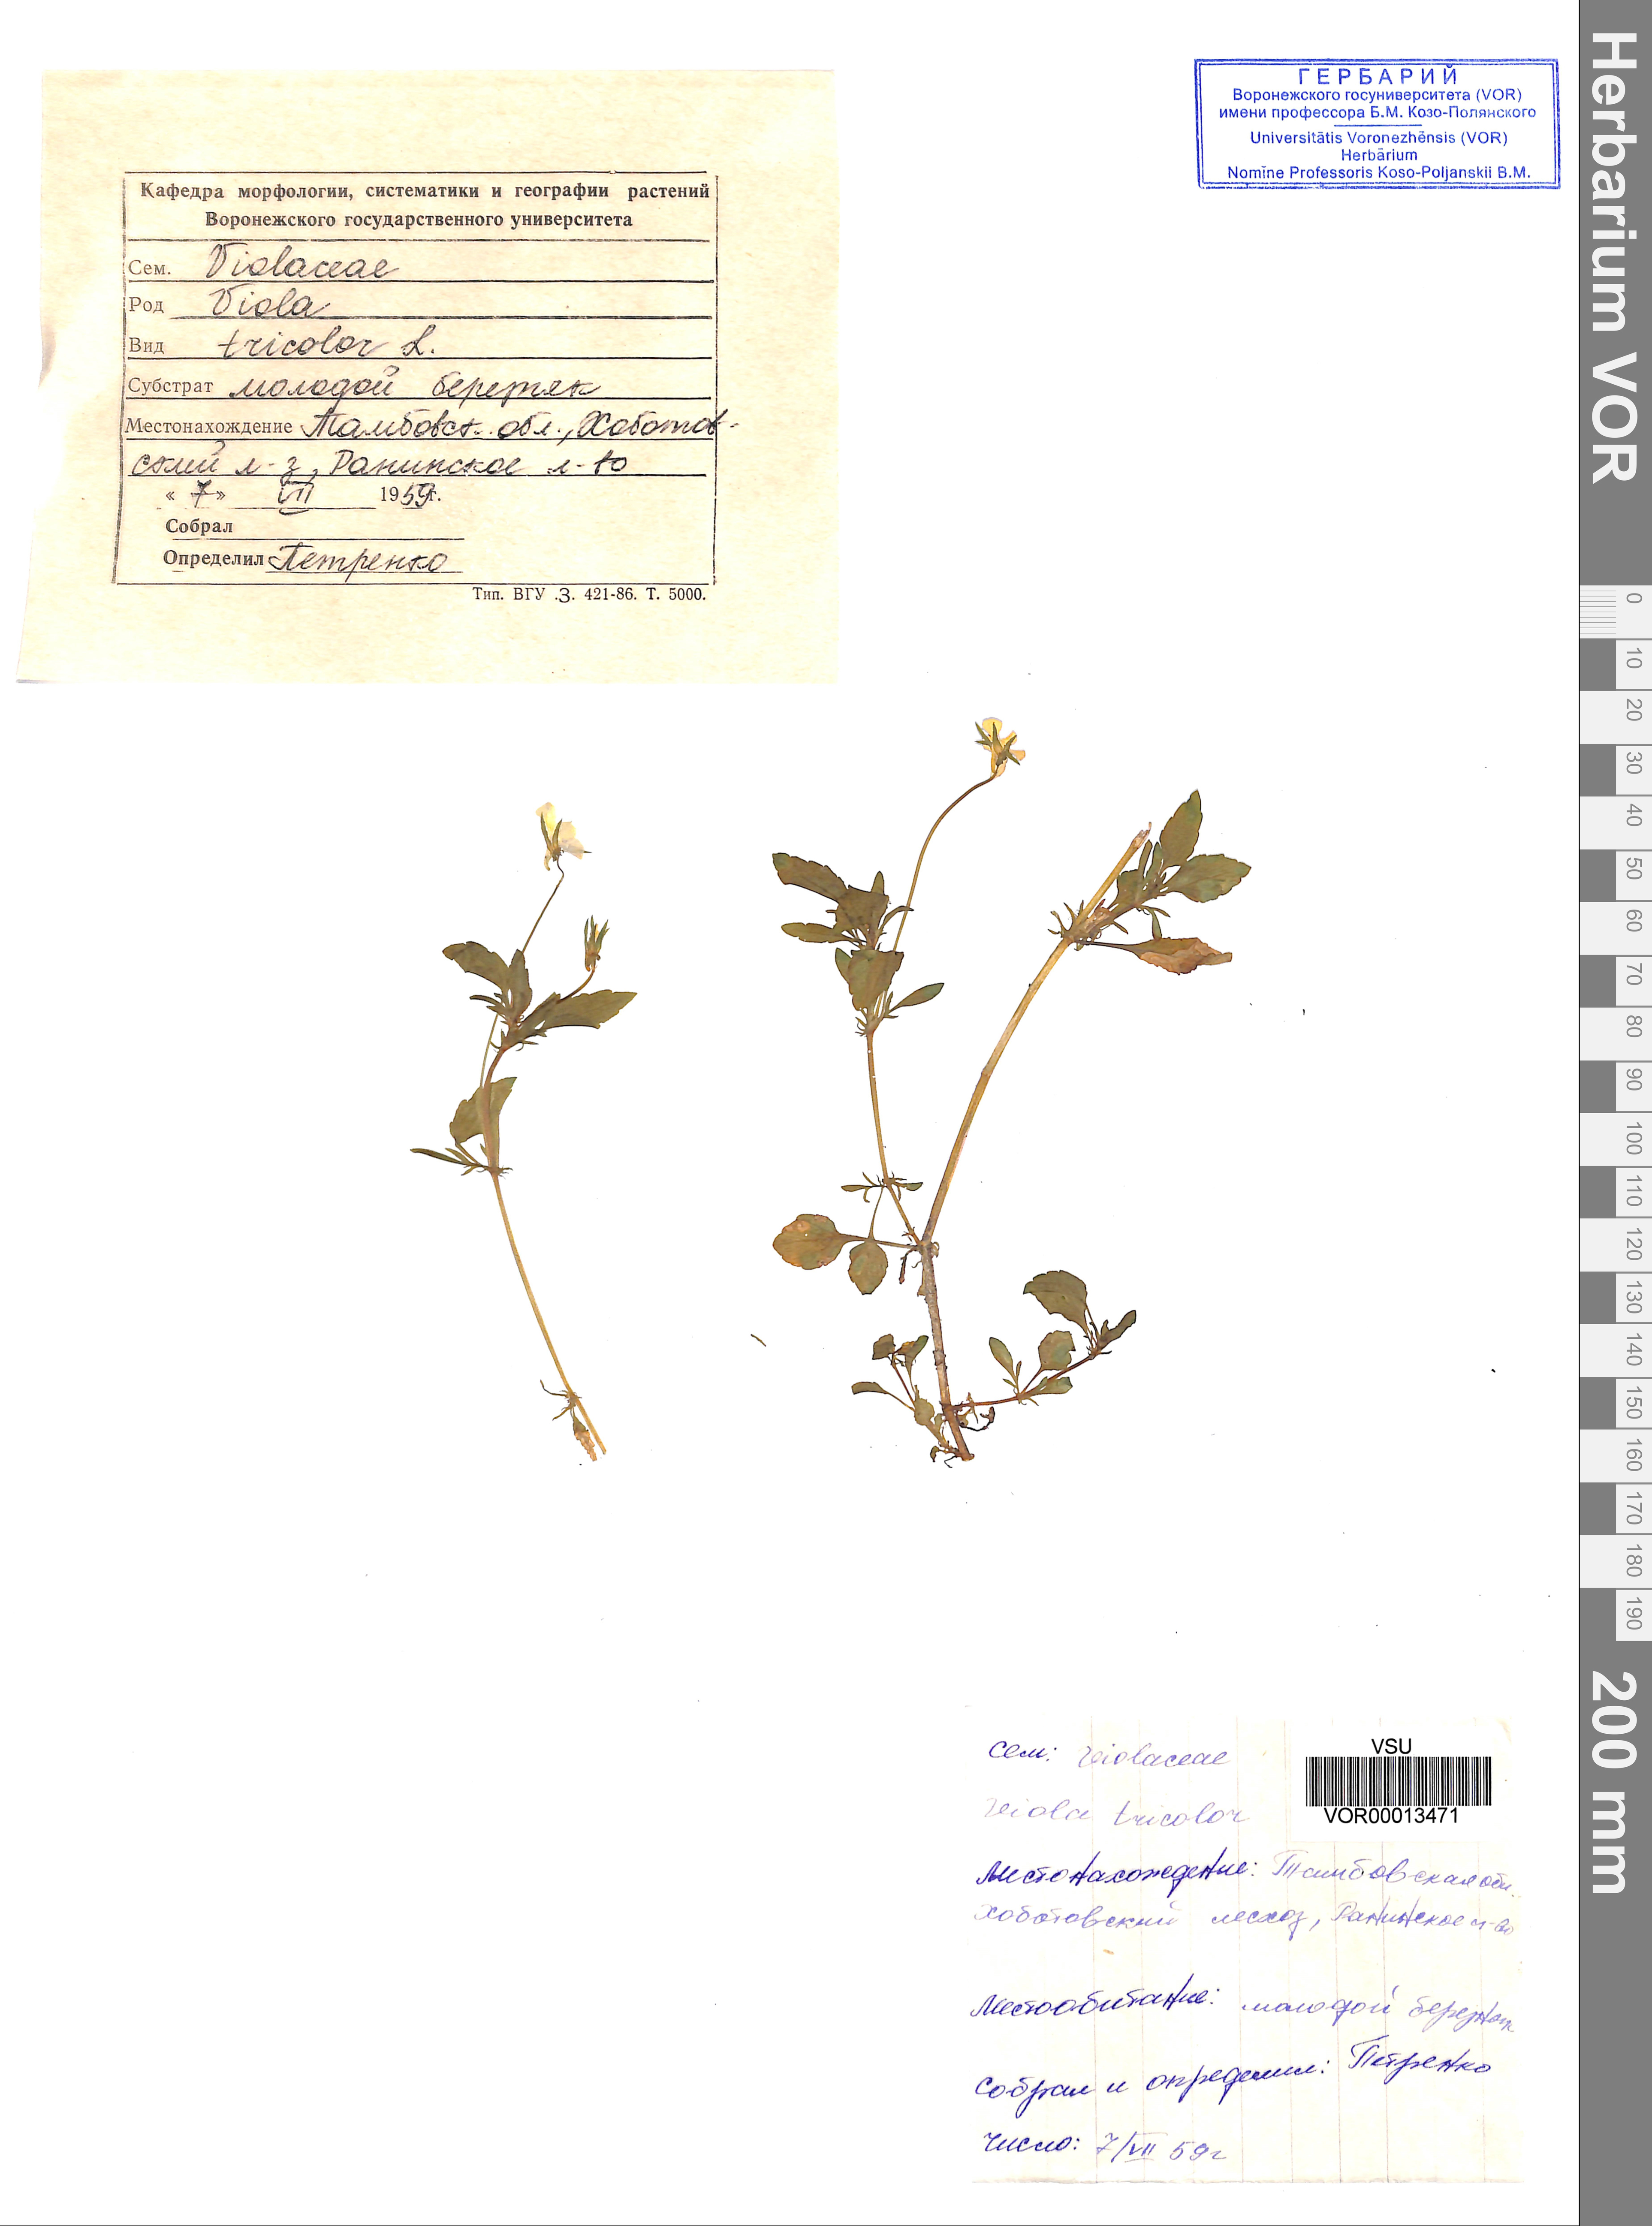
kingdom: Plantae
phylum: Tracheophyta
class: Magnoliopsida
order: Malpighiales
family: Violaceae
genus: Viola
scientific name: Viola tricolor
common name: Pansy
